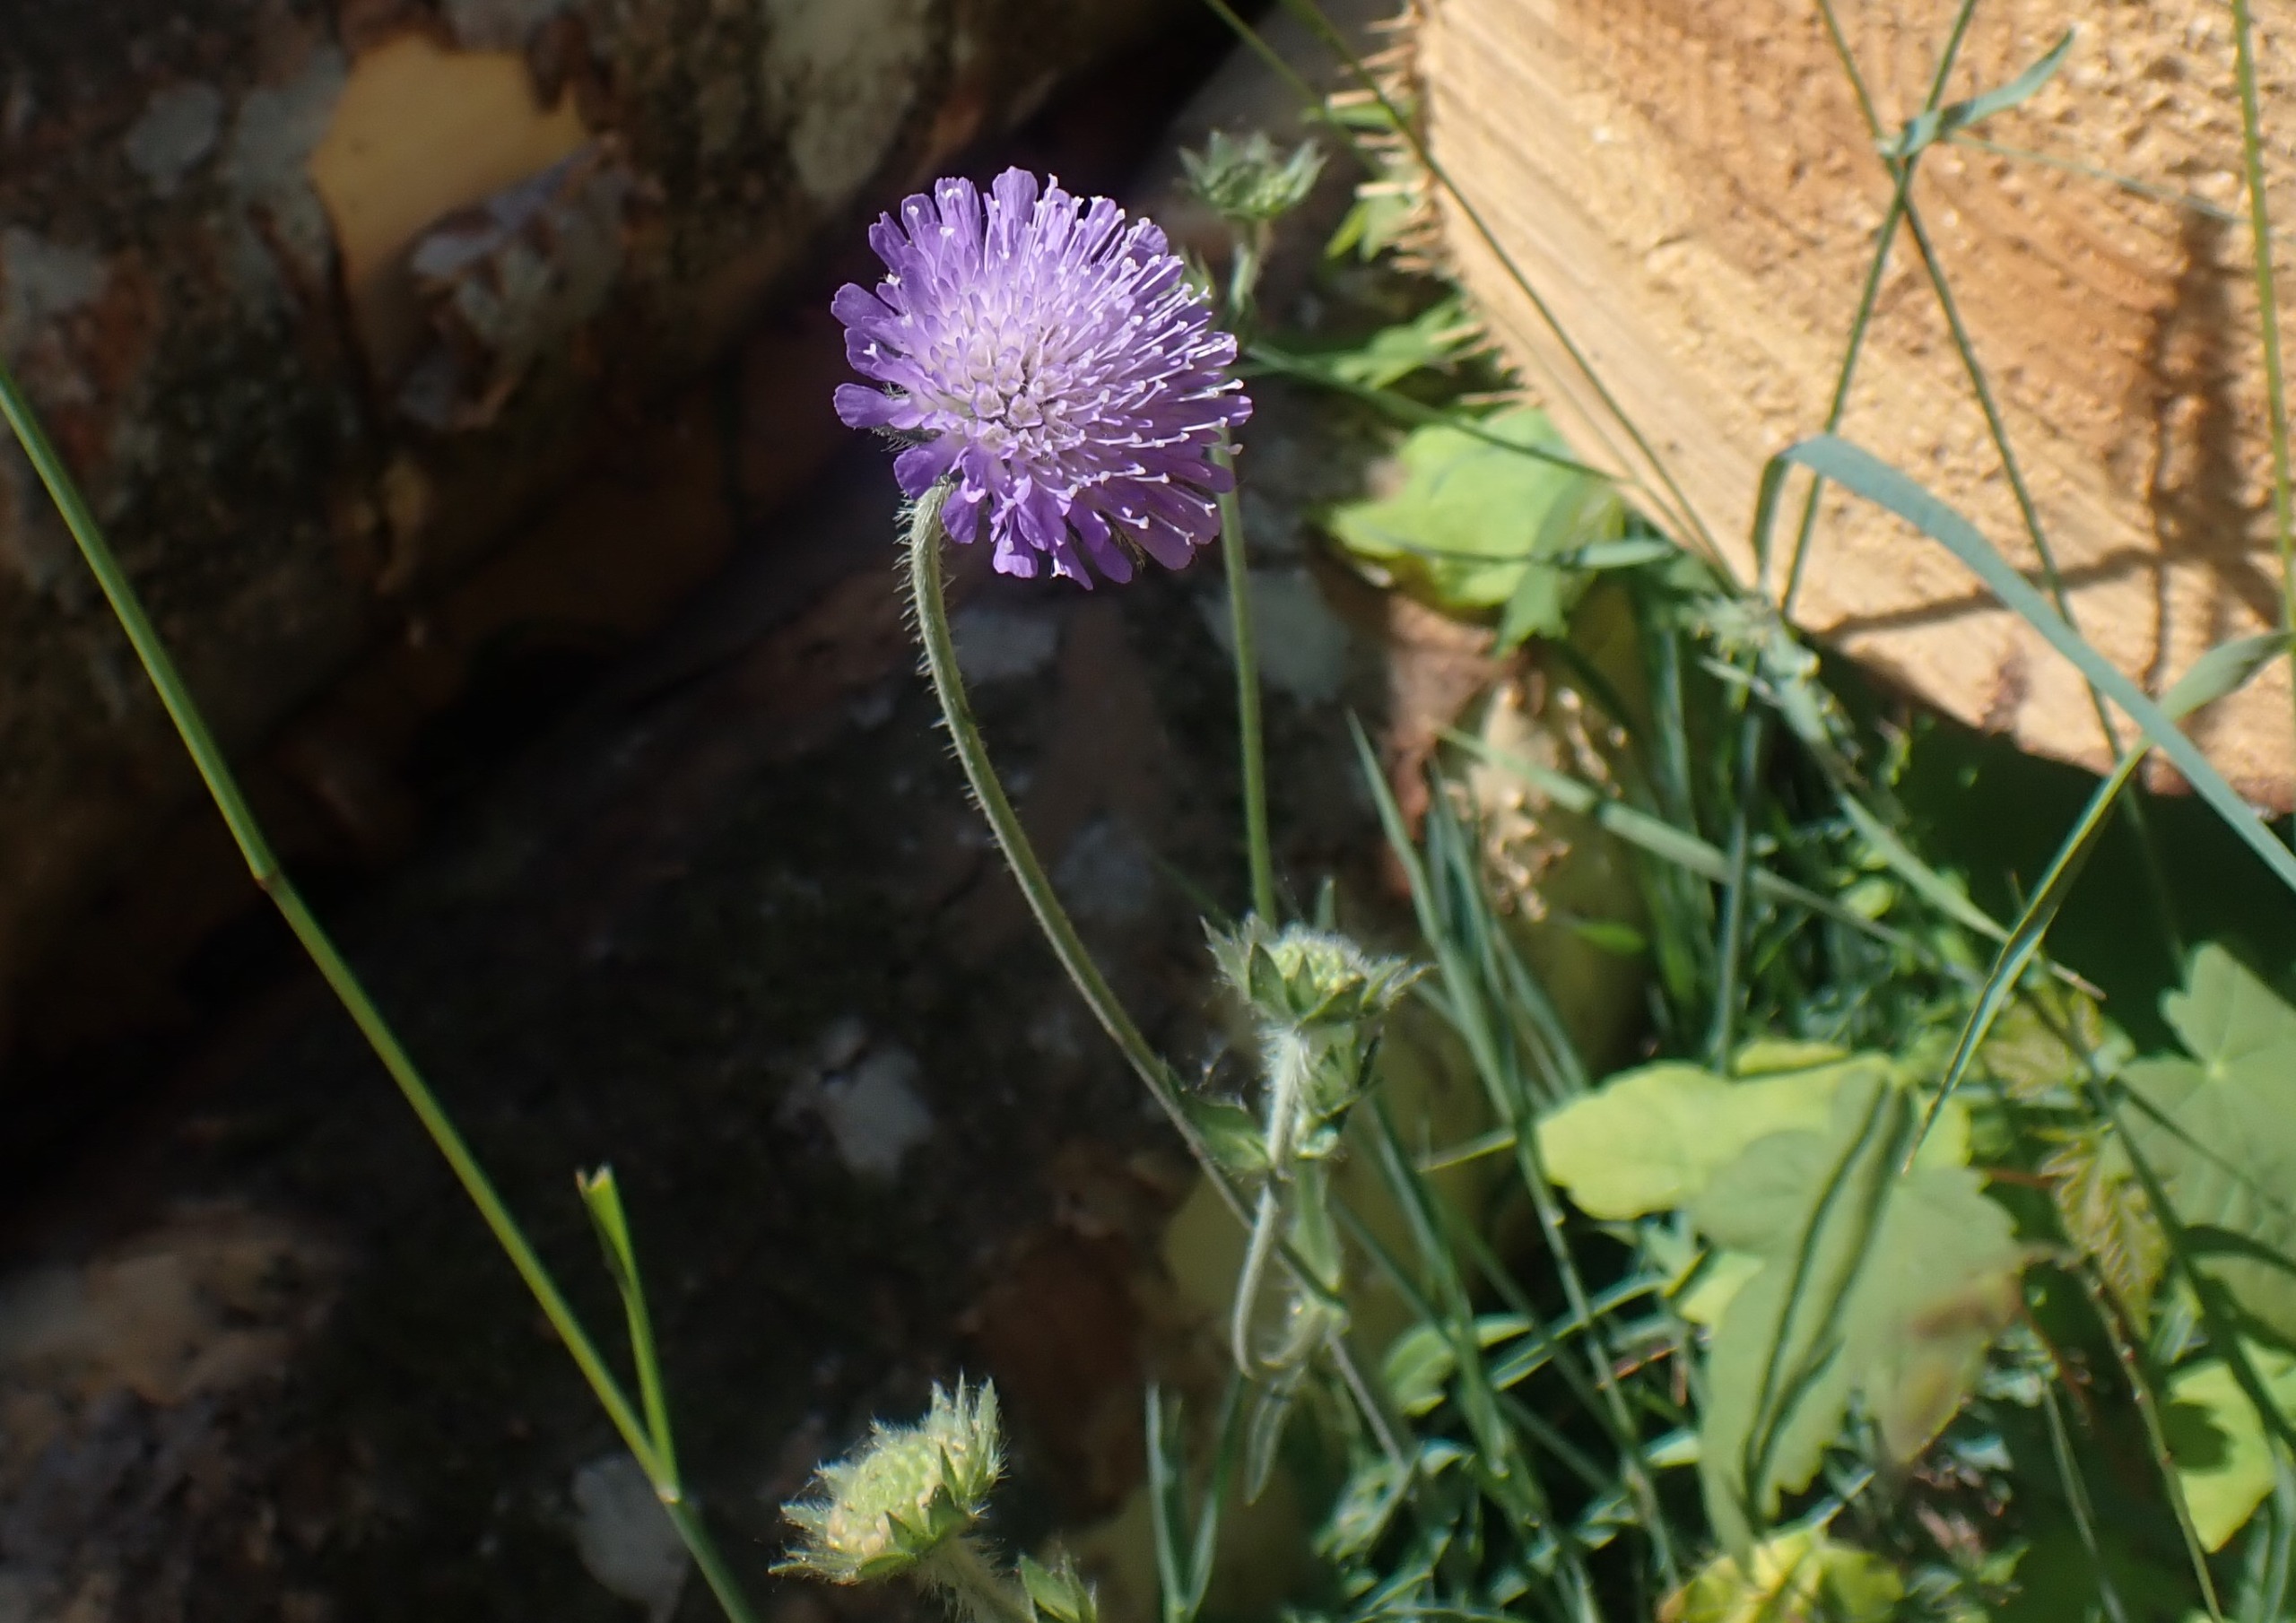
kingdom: Plantae
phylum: Tracheophyta
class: Magnoliopsida
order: Dipsacales
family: Caprifoliaceae
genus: Knautia
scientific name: Knautia arvensis
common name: Blåhat
